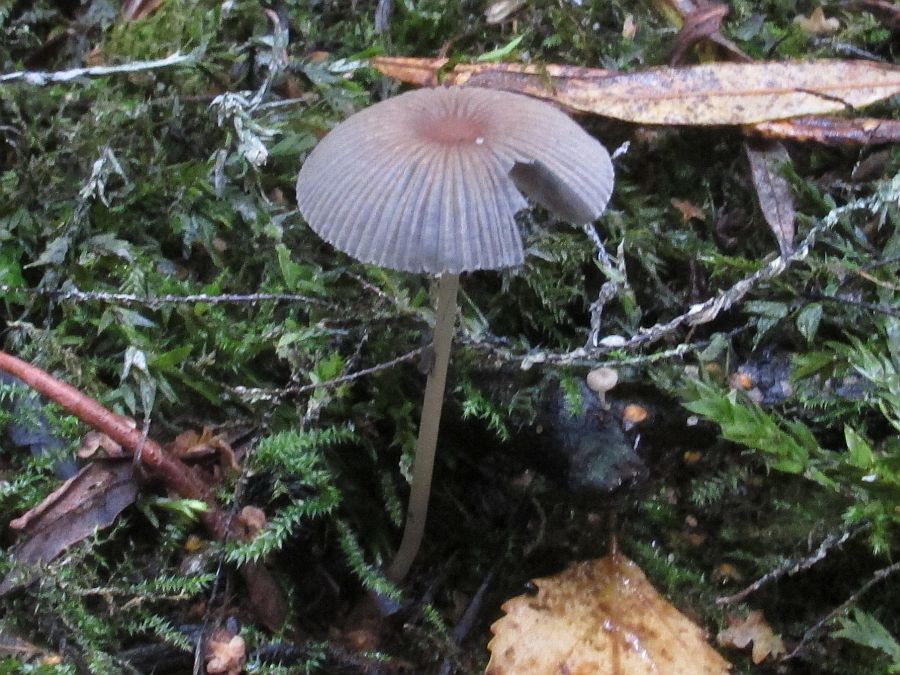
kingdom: Fungi
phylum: Basidiomycota
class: Agaricomycetes
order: Agaricales
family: Psathyrellaceae
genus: Parasola
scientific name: Parasola kuehneri
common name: skygge-hjulhat
